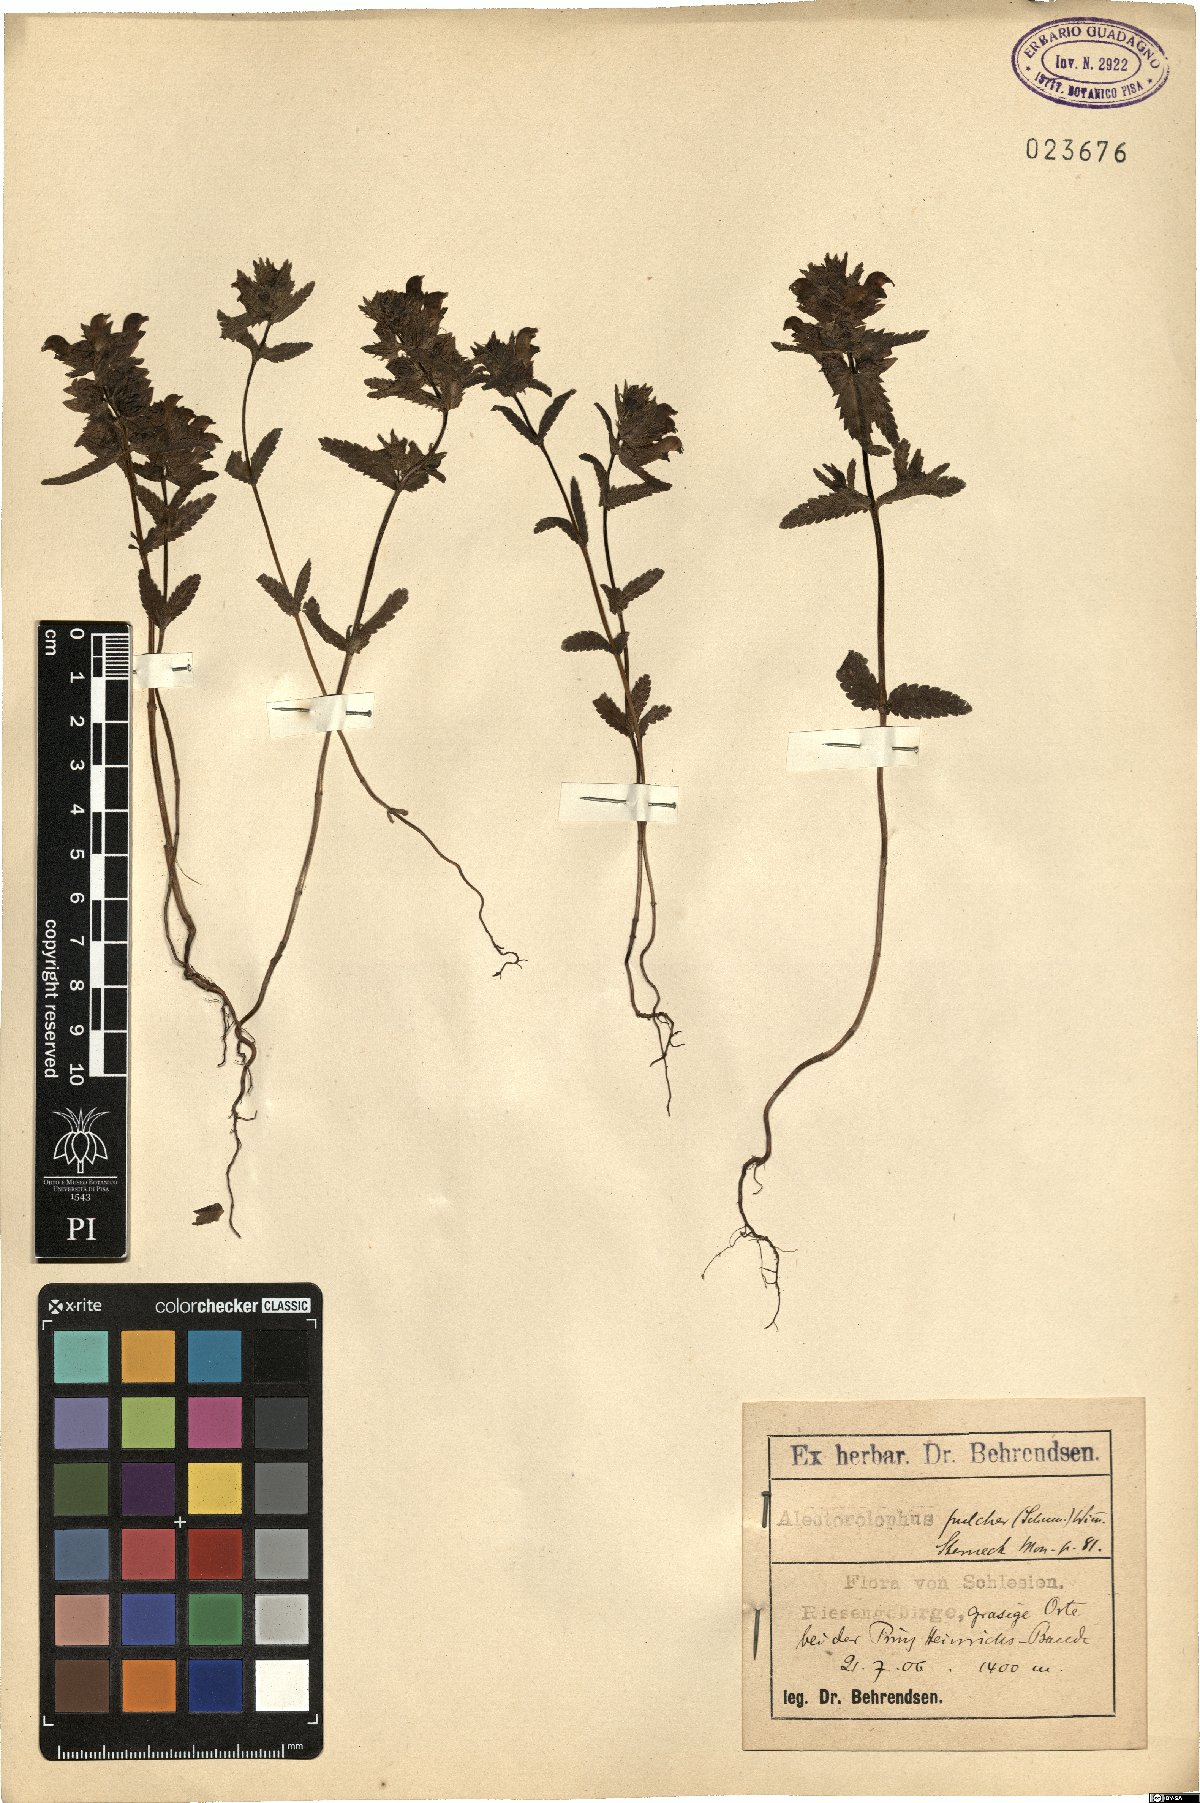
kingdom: Plantae
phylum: Tracheophyta
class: Magnoliopsida
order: Lamiales
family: Orobanchaceae
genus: Rhinanthus
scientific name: Rhinanthus riphaeus
